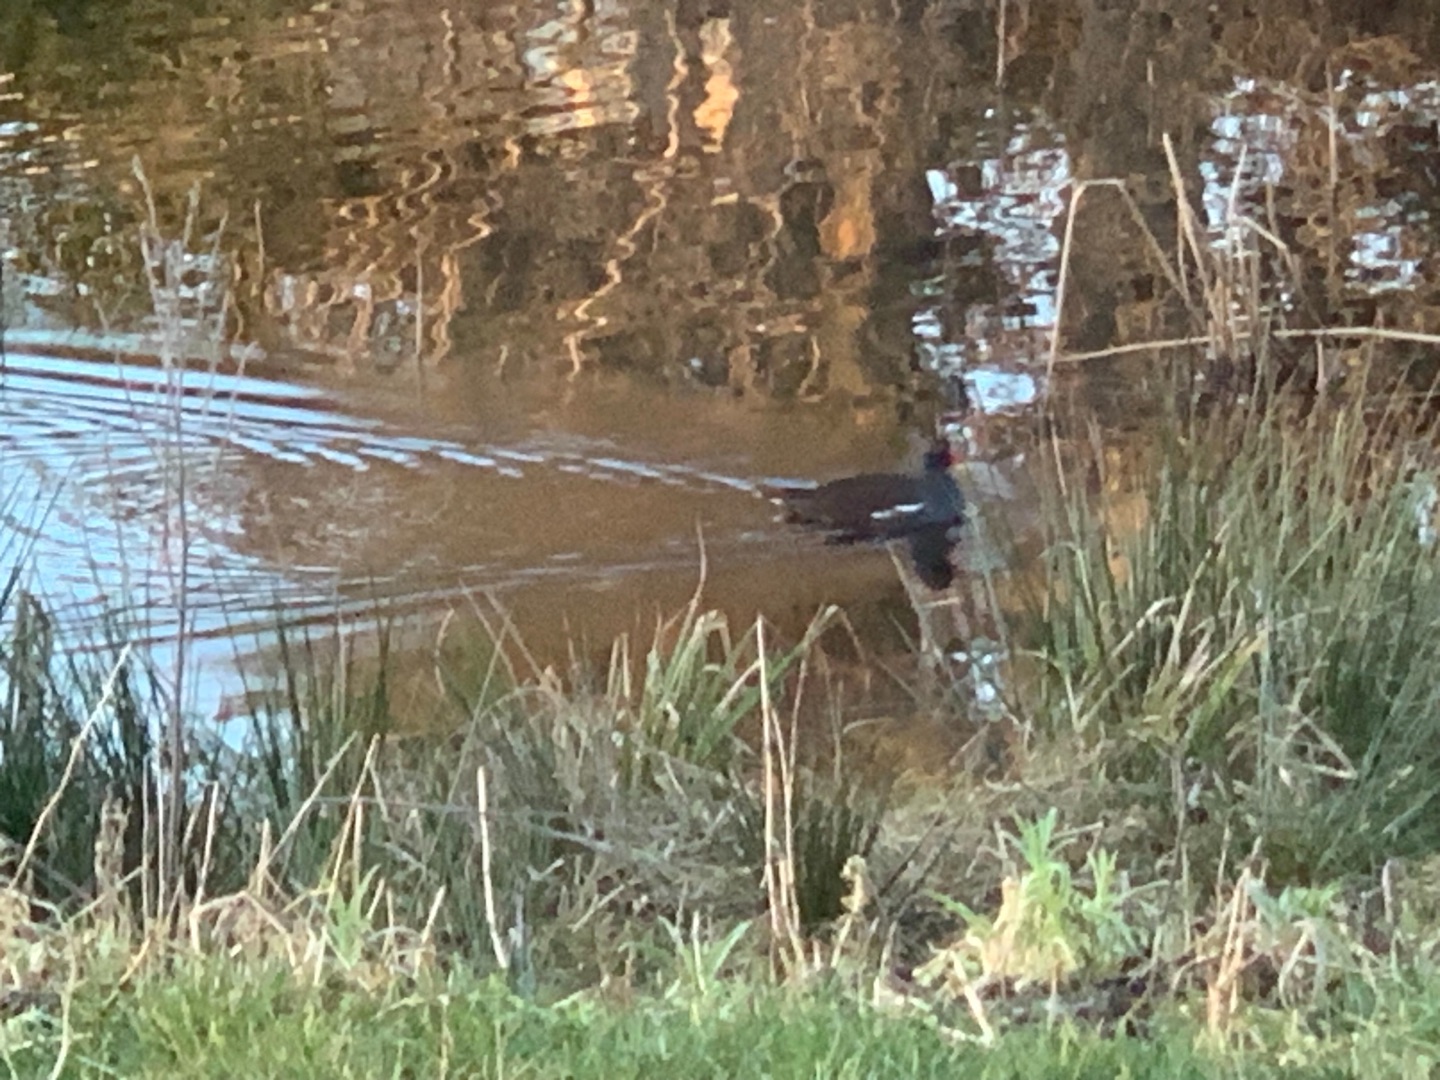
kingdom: Animalia
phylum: Chordata
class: Aves
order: Gruiformes
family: Rallidae
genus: Gallinula
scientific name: Gallinula chloropus
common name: Grønbenet rørhøne
